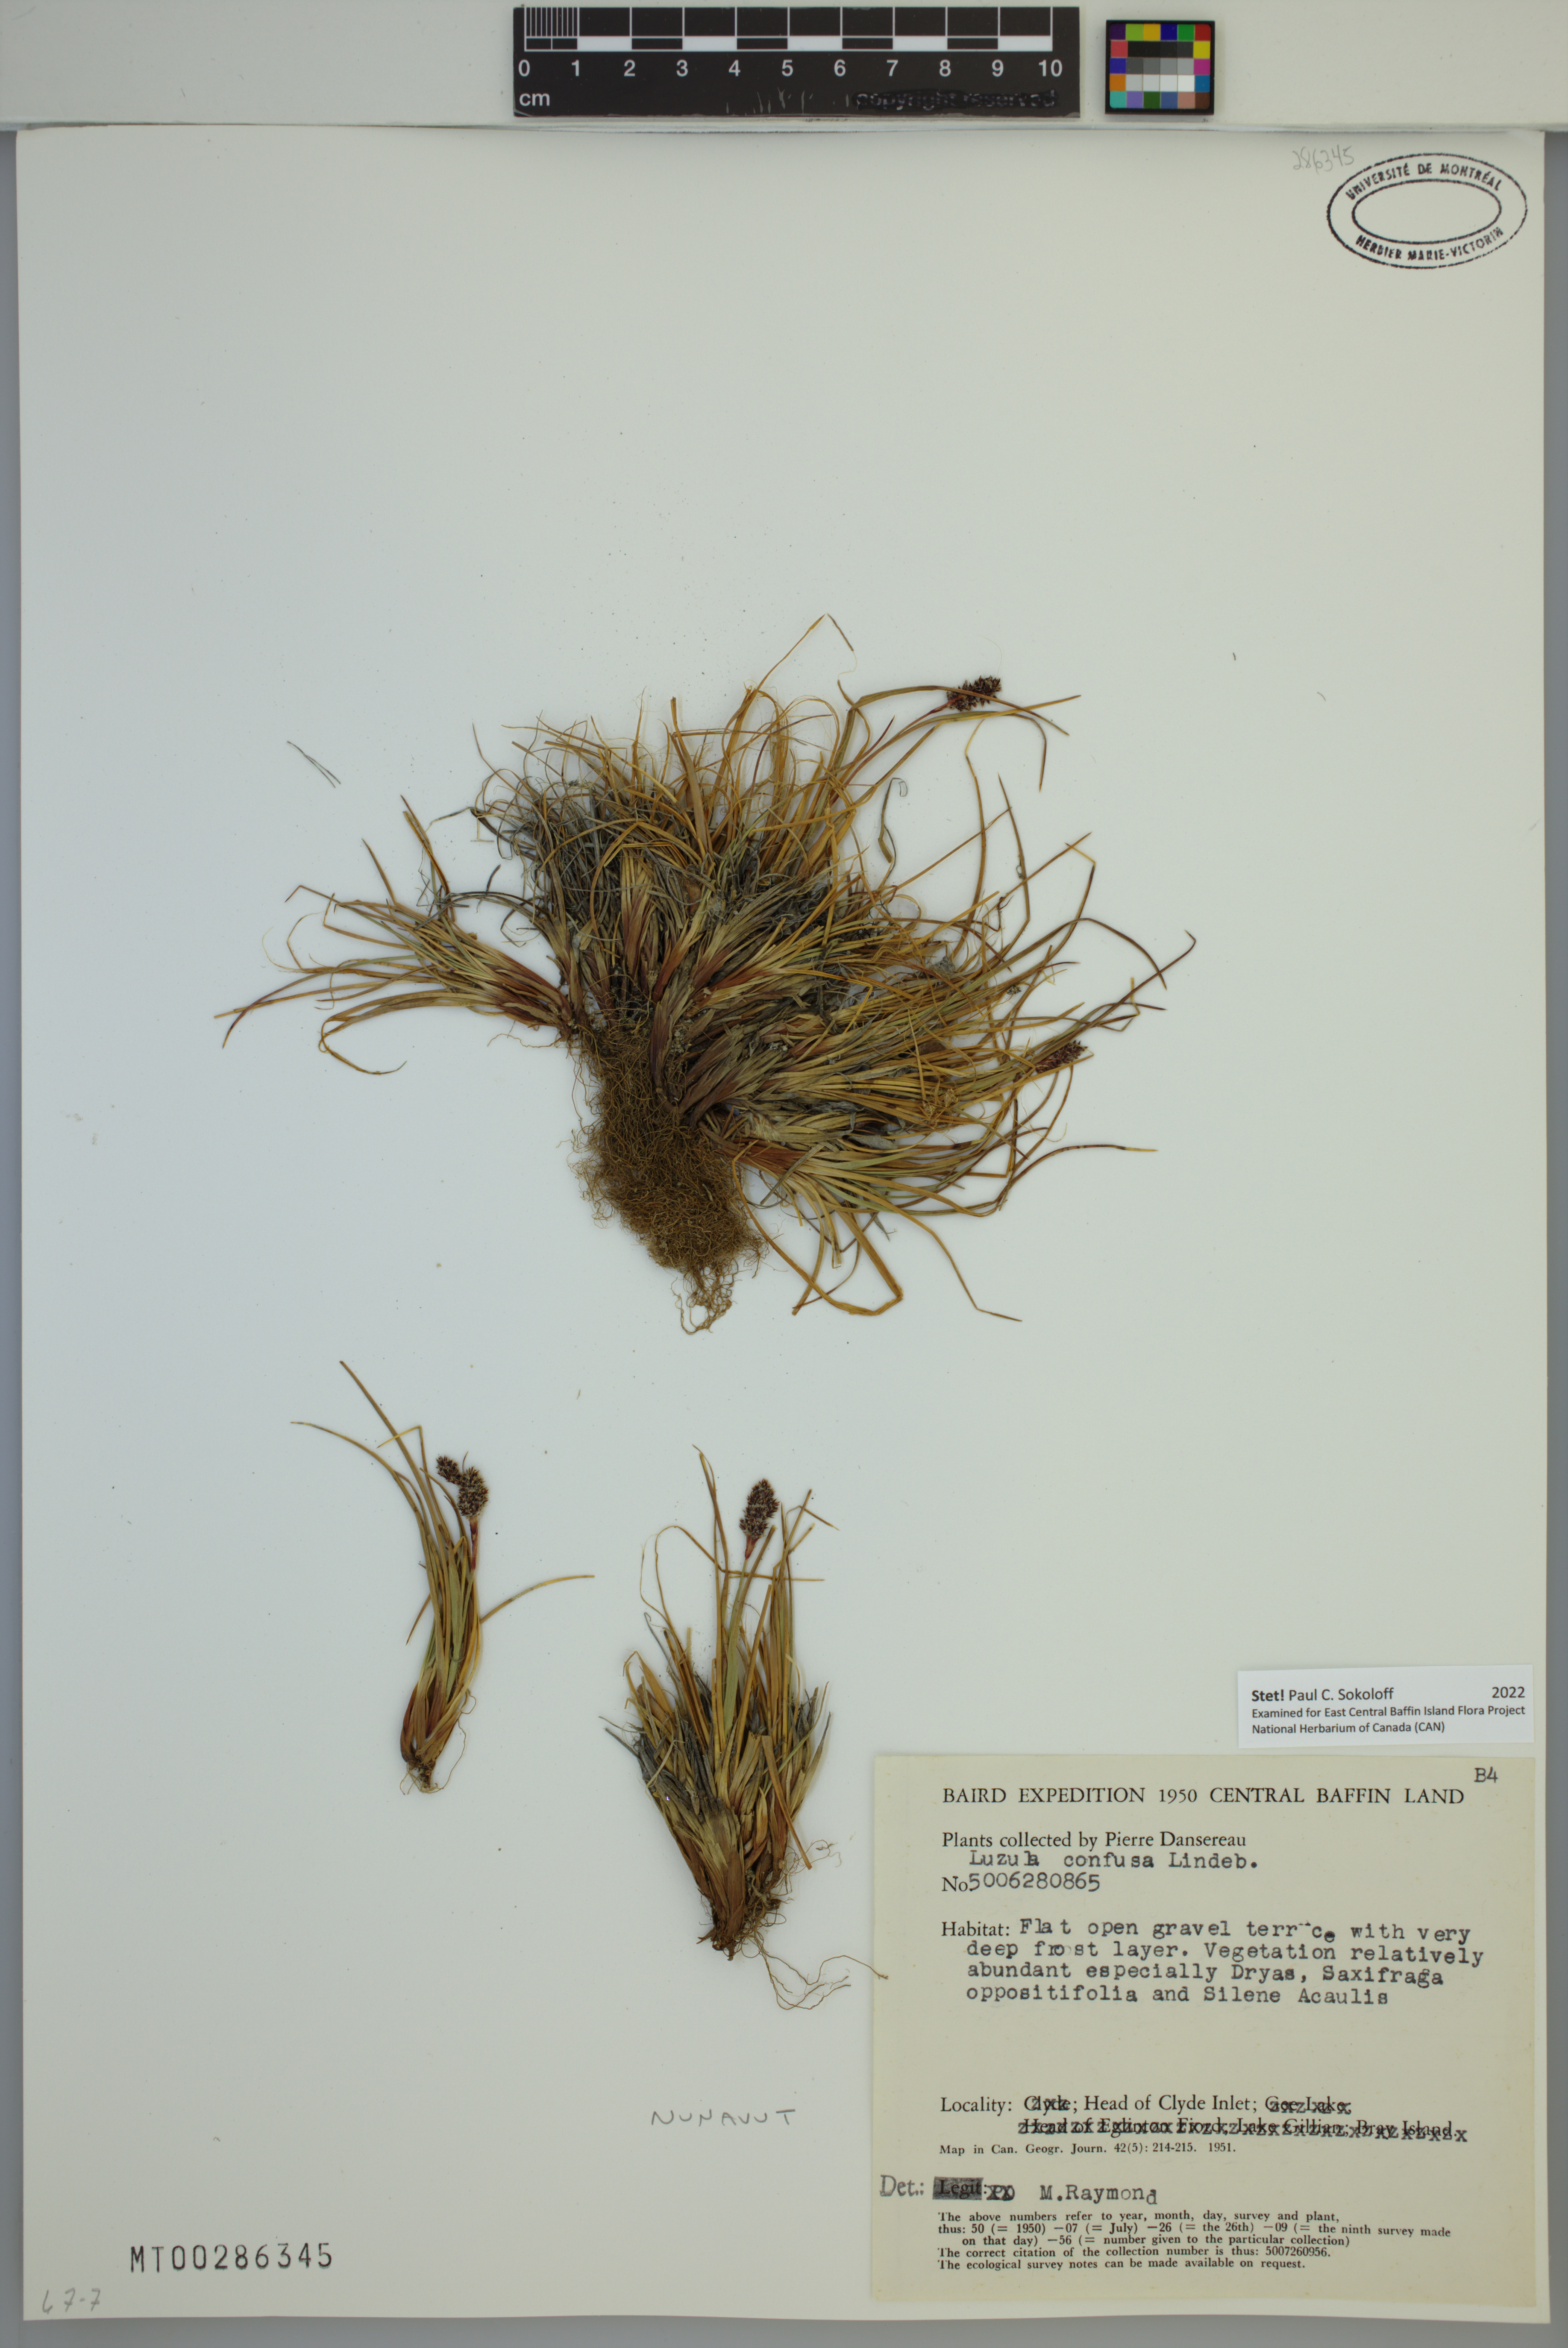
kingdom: Plantae
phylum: Tracheophyta
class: Liliopsida
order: Poales
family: Juncaceae
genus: Luzula
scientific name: Luzula confusa
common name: Northern wood rush
